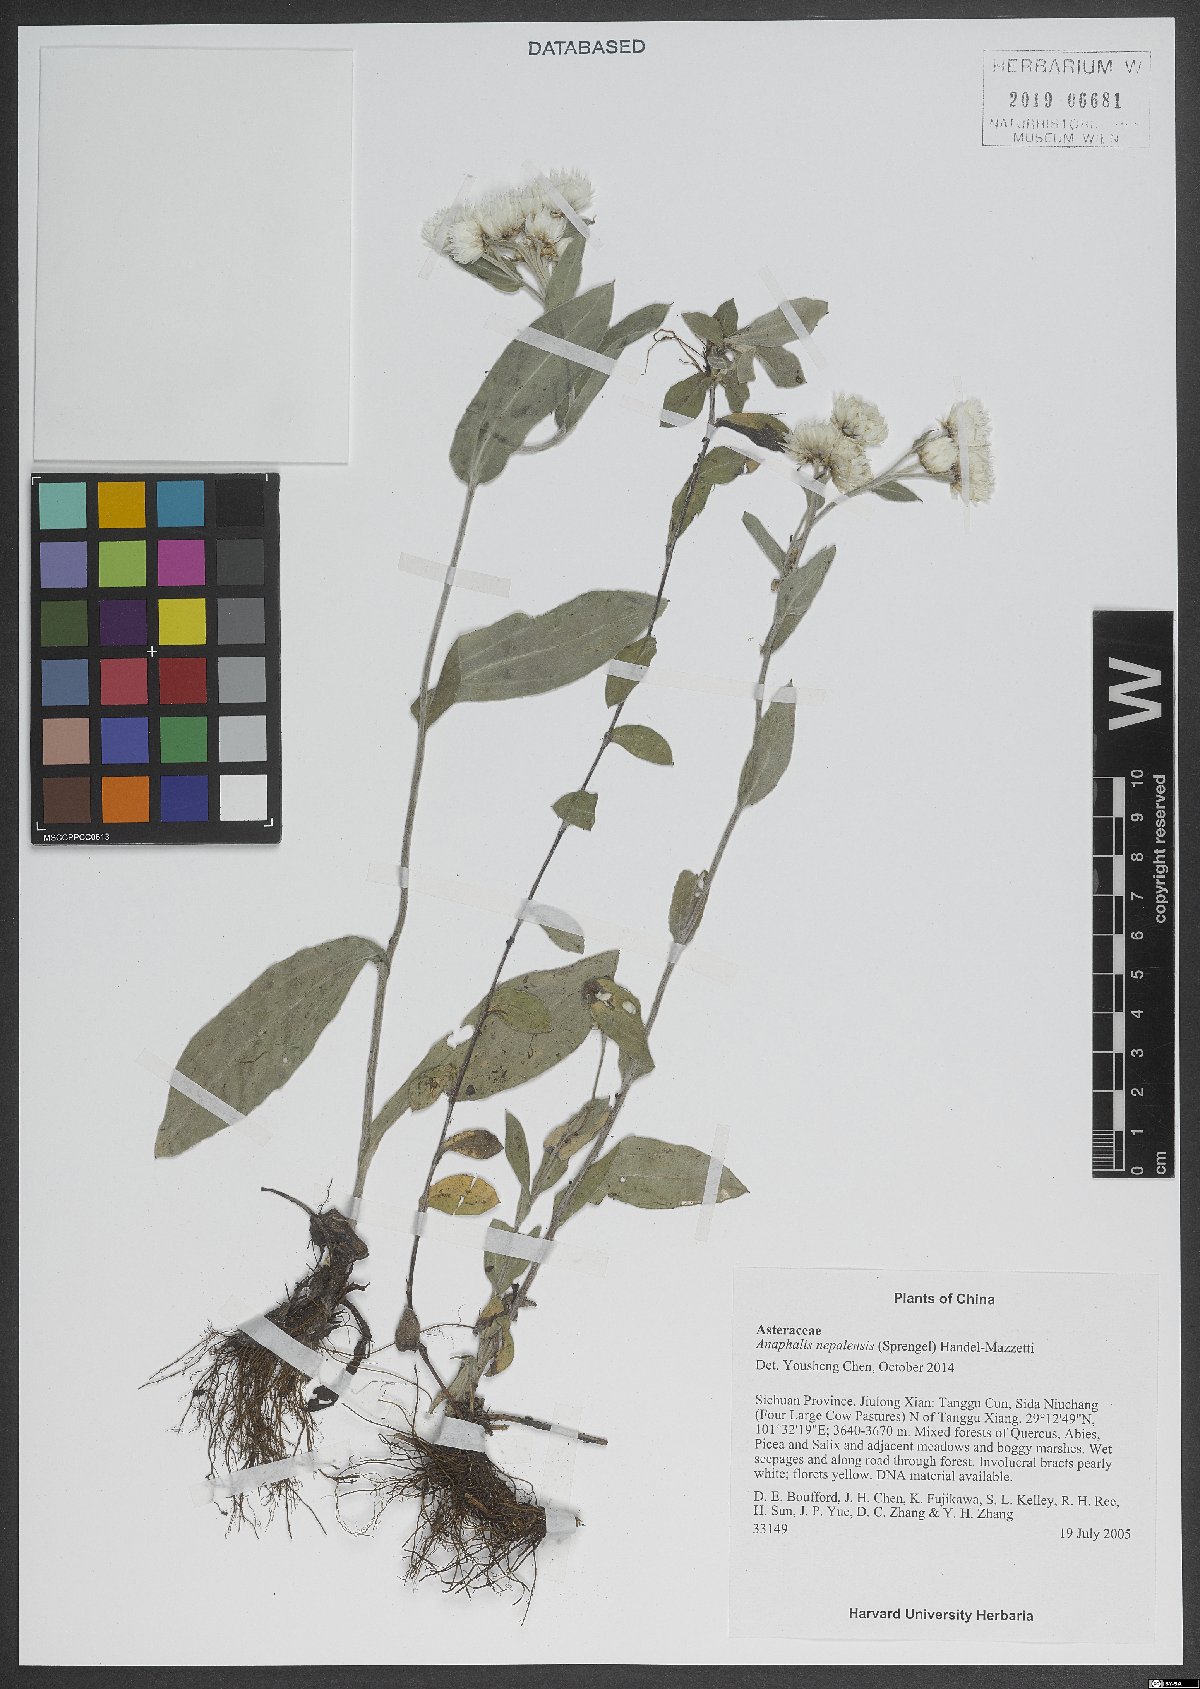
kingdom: Plantae
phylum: Tracheophyta
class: Magnoliopsida
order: Asterales
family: Asteraceae
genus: Anaphalis
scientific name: Anaphalis nepalensis
